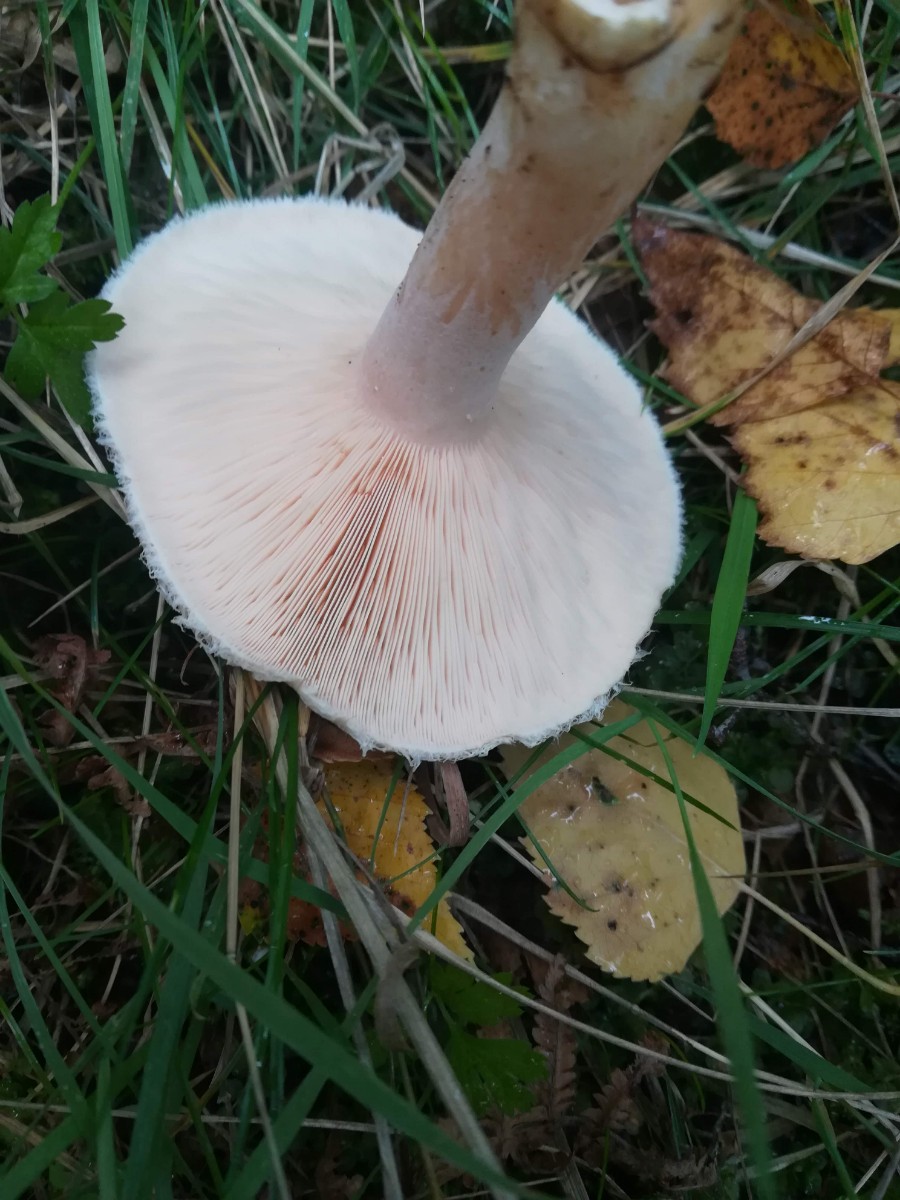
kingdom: Fungi
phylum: Basidiomycota
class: Agaricomycetes
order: Russulales
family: Russulaceae
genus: Lactarius
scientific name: Lactarius torminosus
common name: skægget mælkehat
